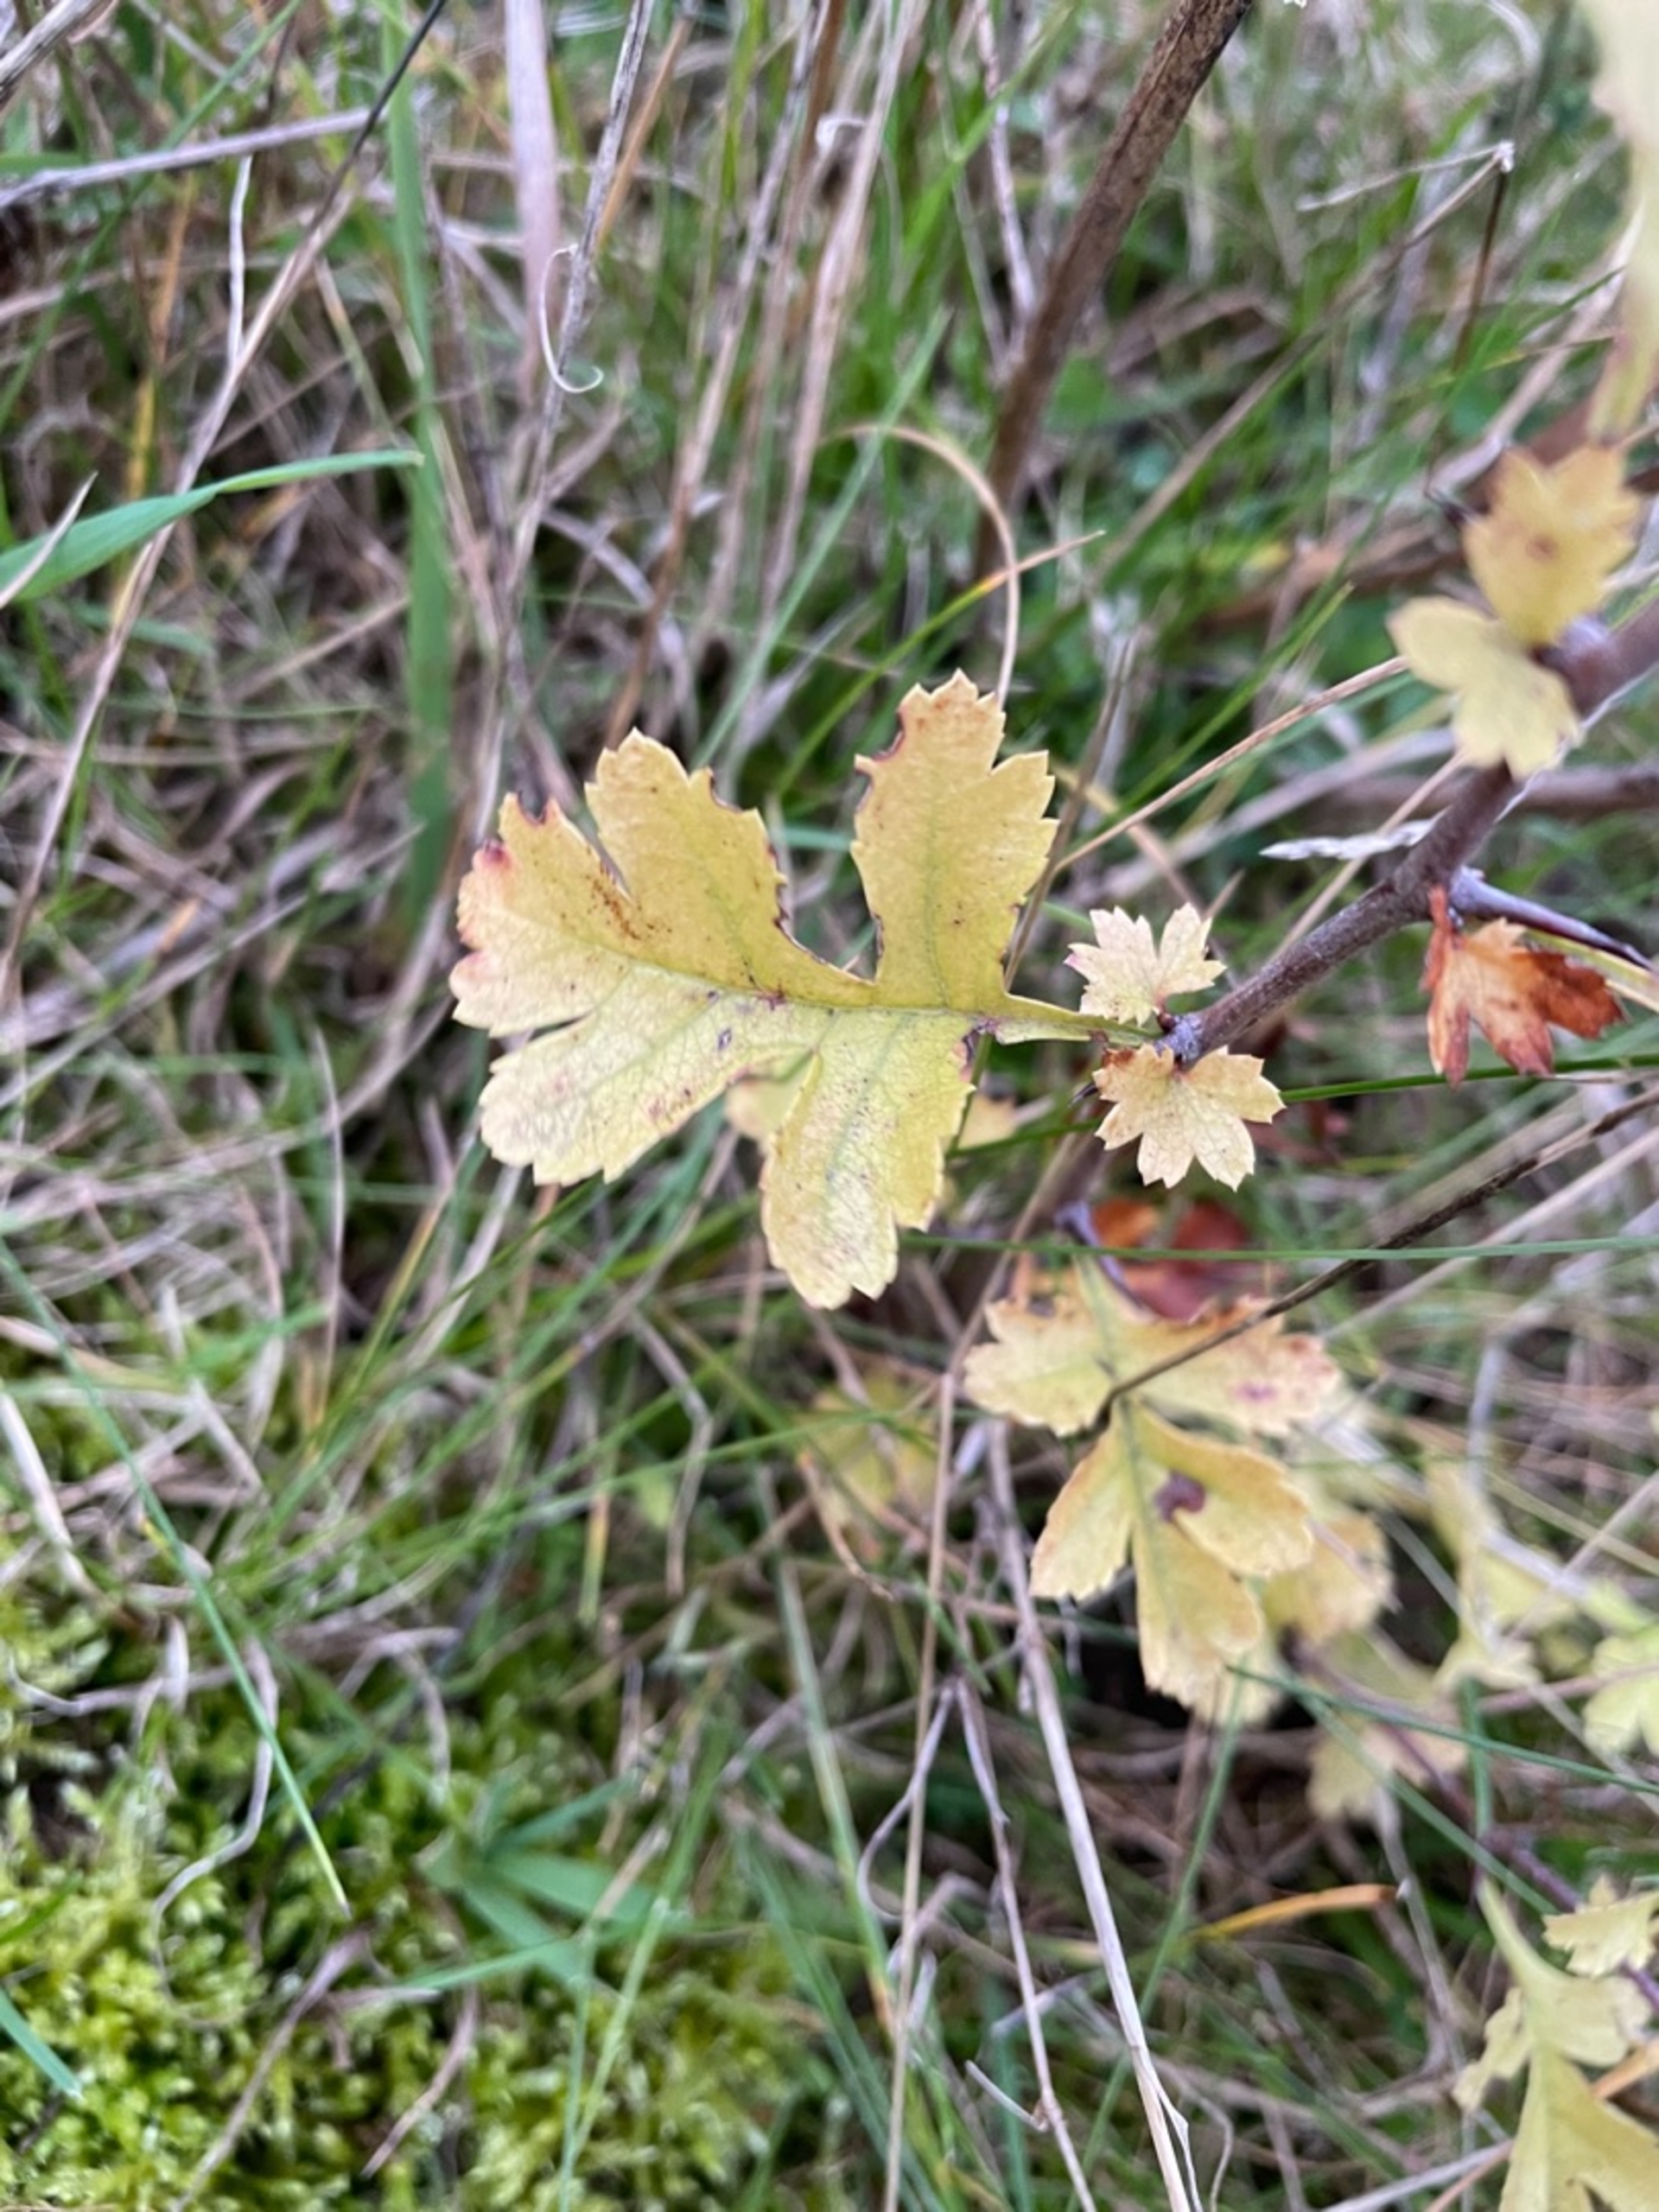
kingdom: Plantae
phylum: Tracheophyta
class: Magnoliopsida
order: Rosales
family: Rosaceae
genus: Crataegus
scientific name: Crataegus monogyna
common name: Engriflet hvidtjørn
